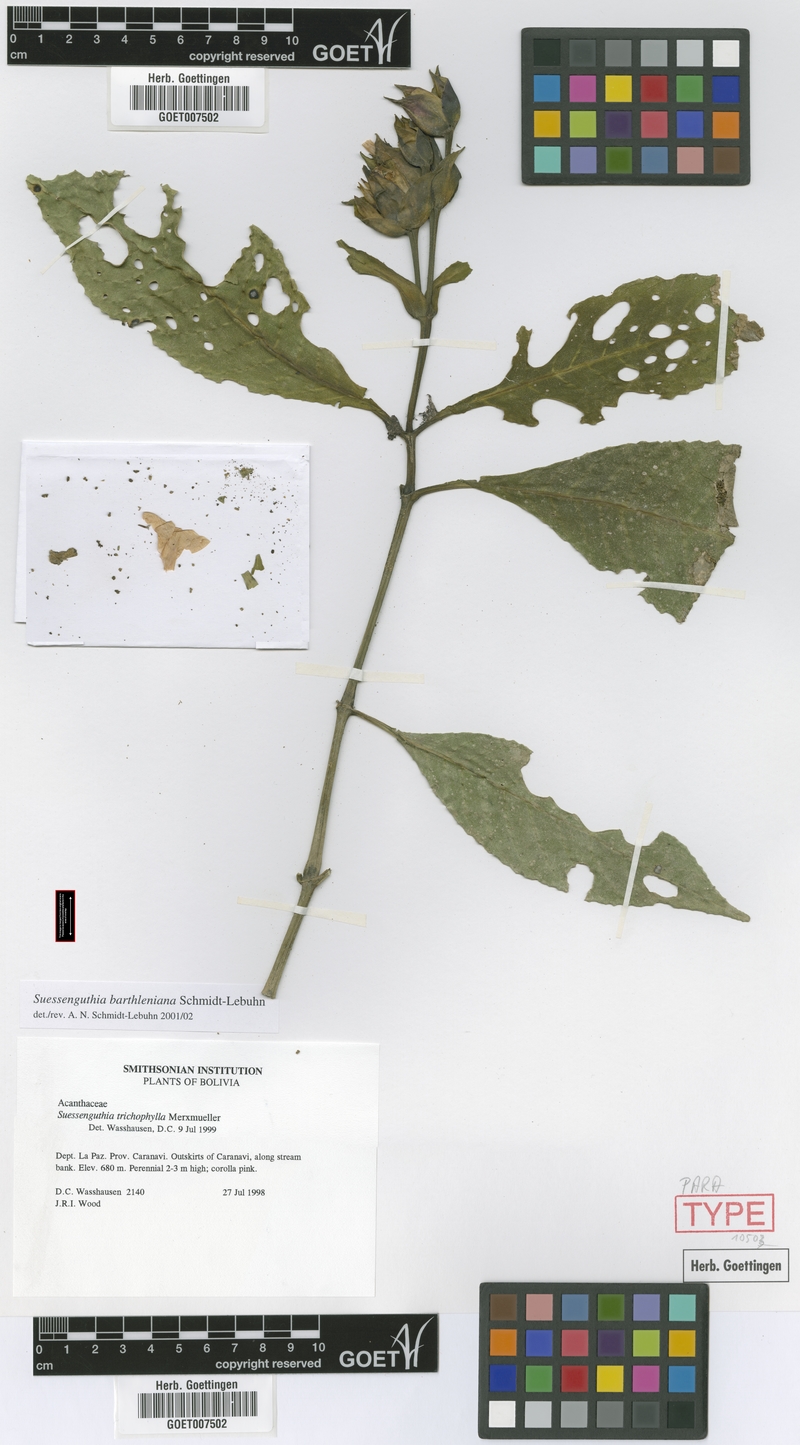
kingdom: Plantae
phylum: Tracheophyta
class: Magnoliopsida
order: Lamiales
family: Acanthaceae
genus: Suessenguthia
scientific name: Suessenguthia barthleniana
